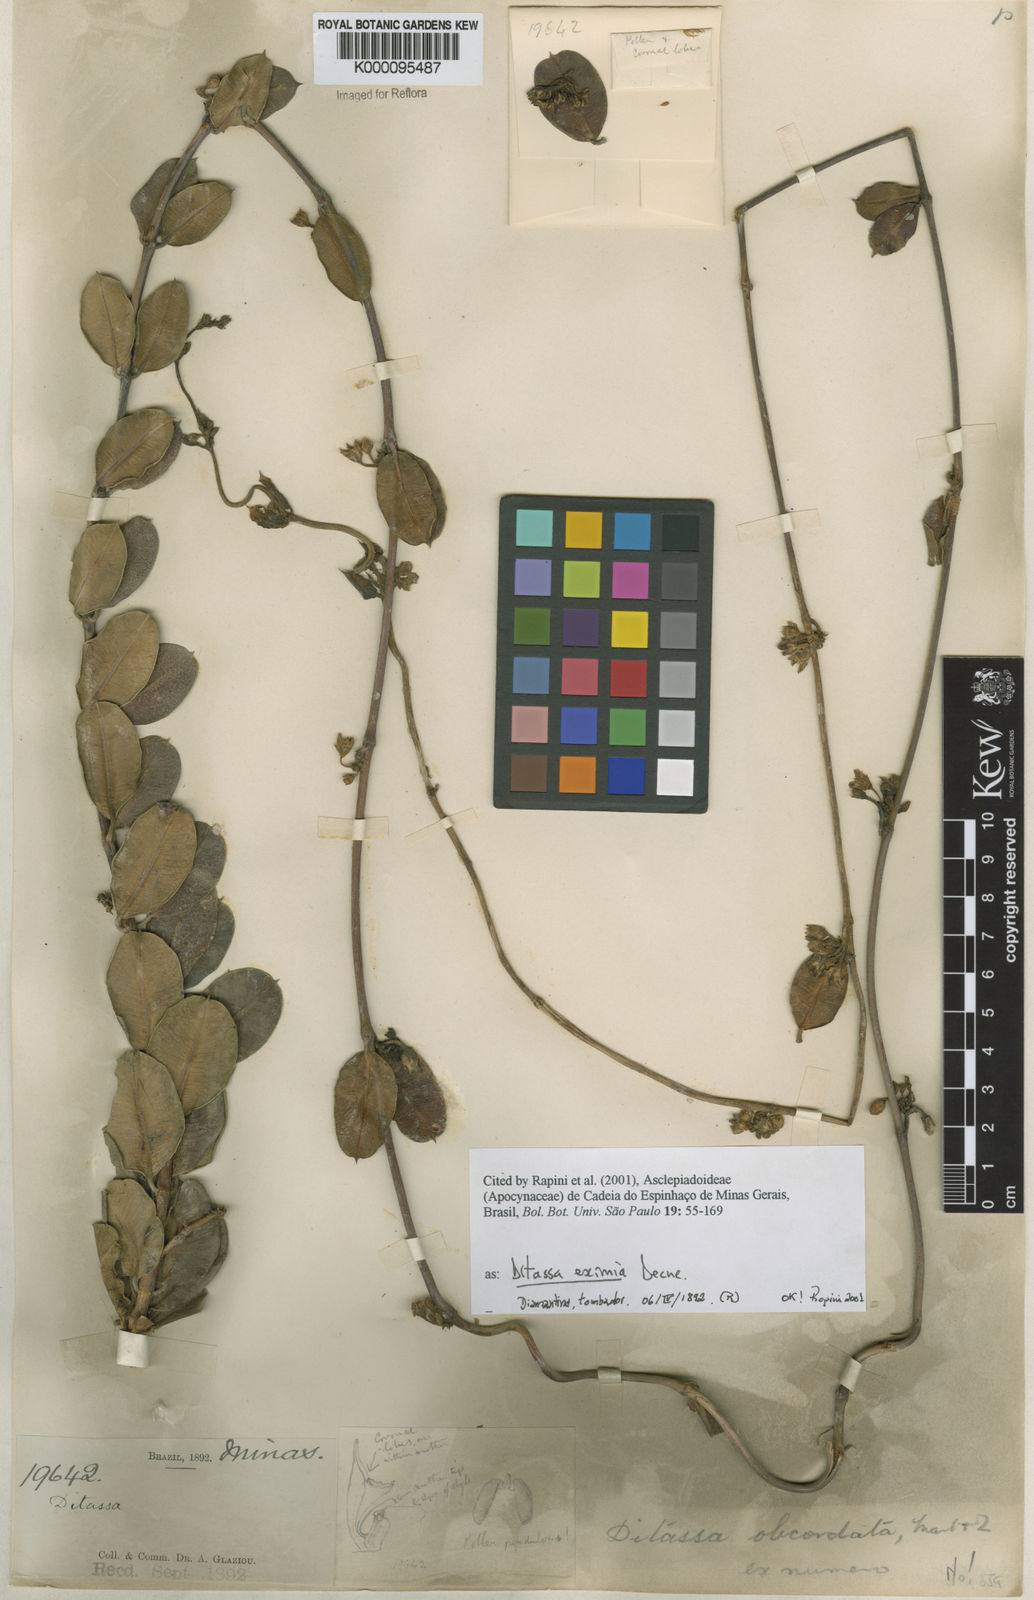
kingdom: Plantae
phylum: Tracheophyta
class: Magnoliopsida
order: Gentianales
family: Apocynaceae
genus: Ditassa
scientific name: Ditassa eximia
